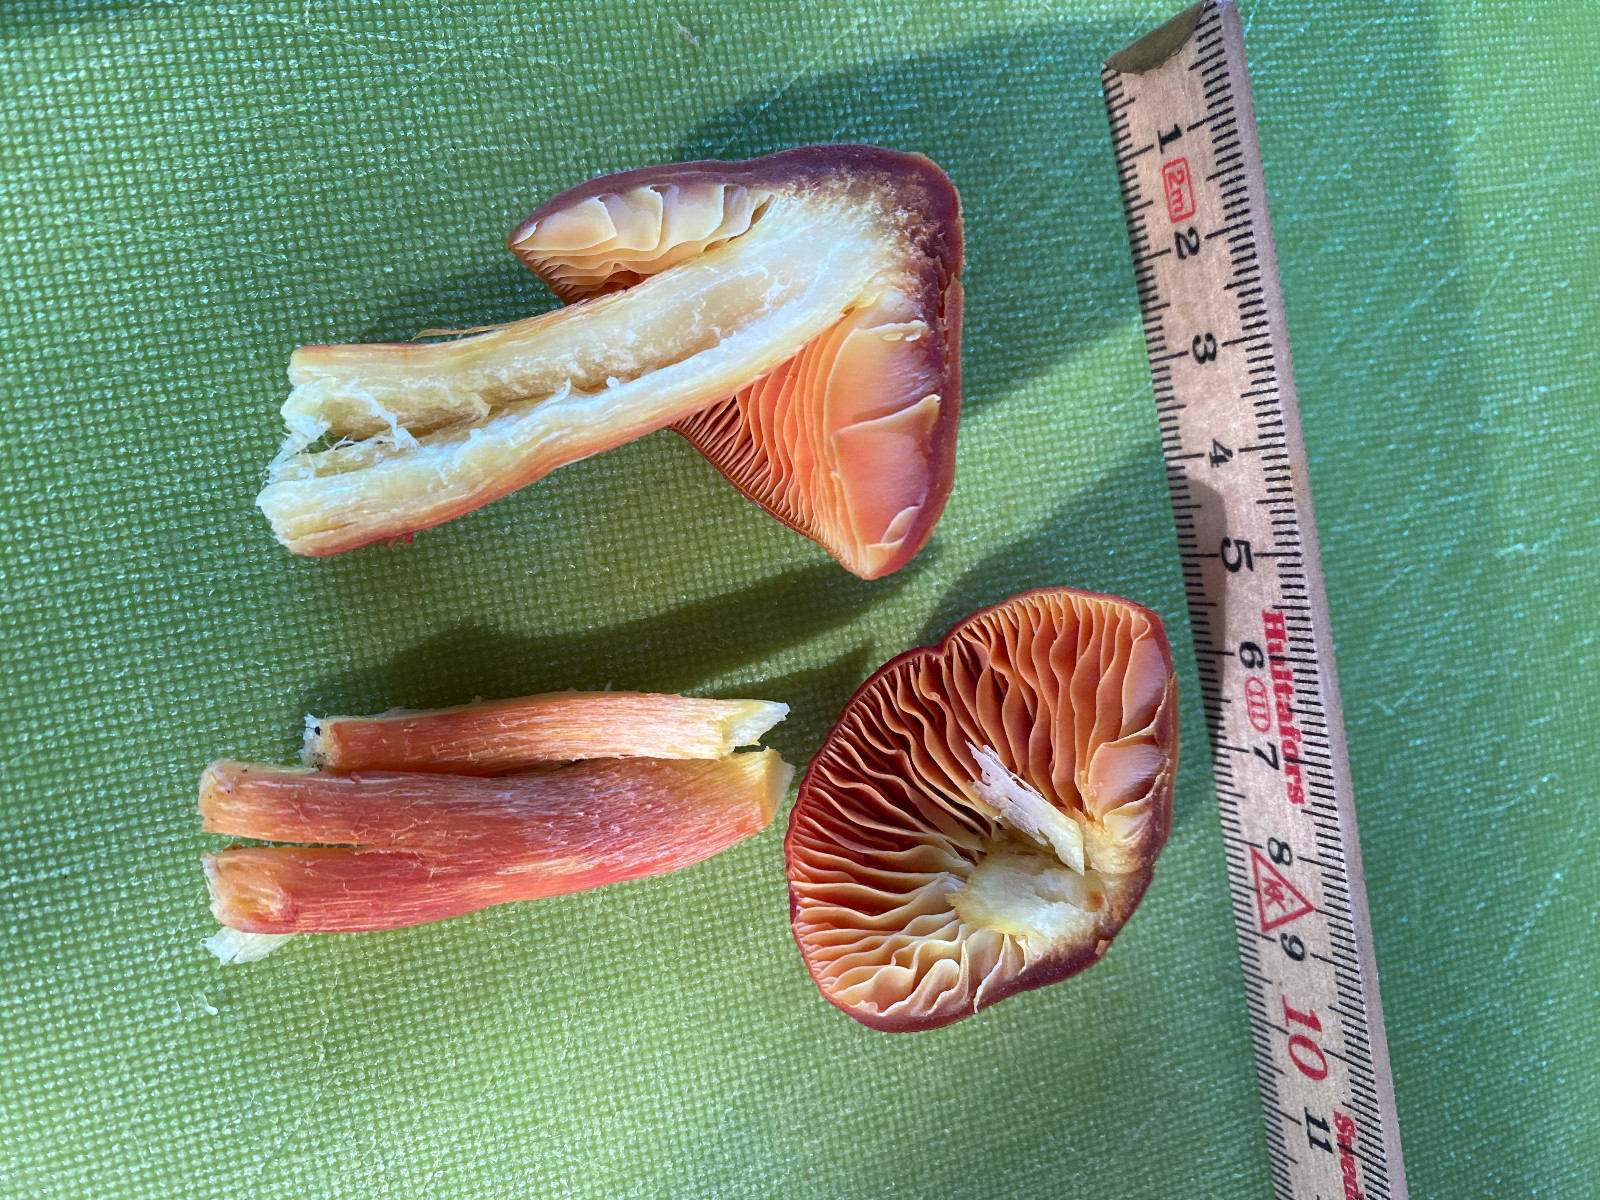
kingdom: Fungi
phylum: Basidiomycota
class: Agaricomycetes
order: Agaricales
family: Hygrophoraceae
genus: Hygrocybe
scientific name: Hygrocybe punicea
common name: skarlagen-vokshat
